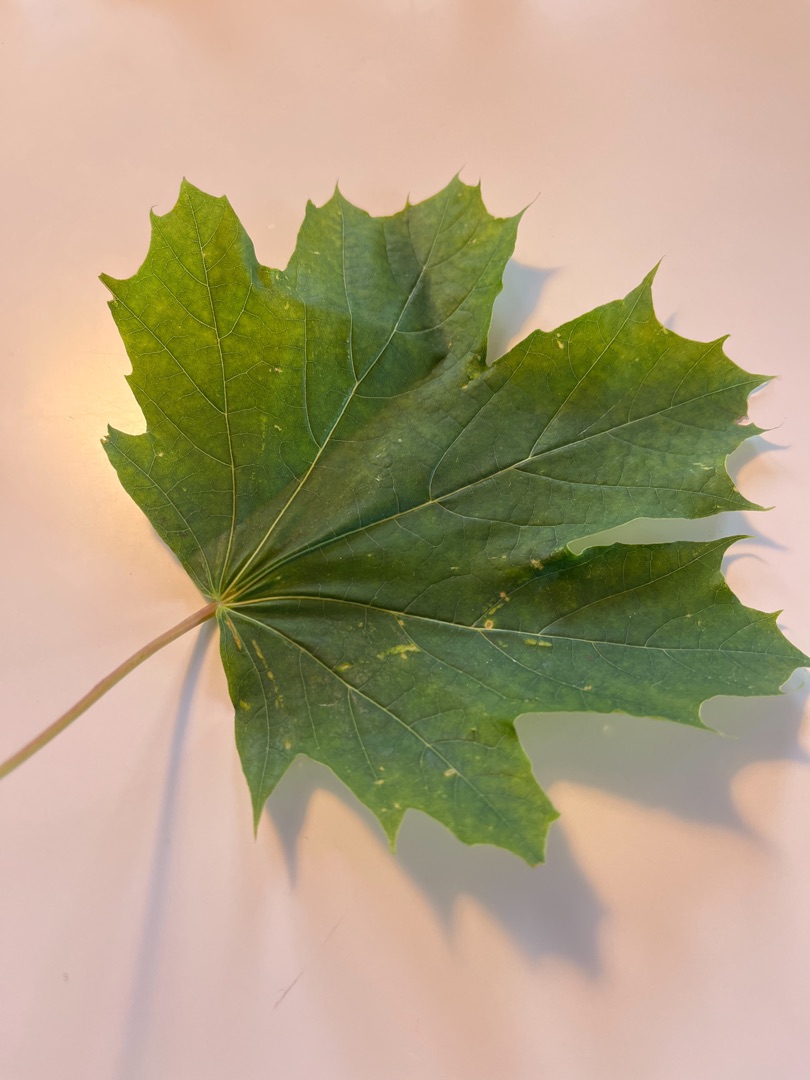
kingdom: Plantae
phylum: Tracheophyta
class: Magnoliopsida
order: Sapindales
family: Sapindaceae
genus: Acer
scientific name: Acer platanoides
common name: Spids-løn
